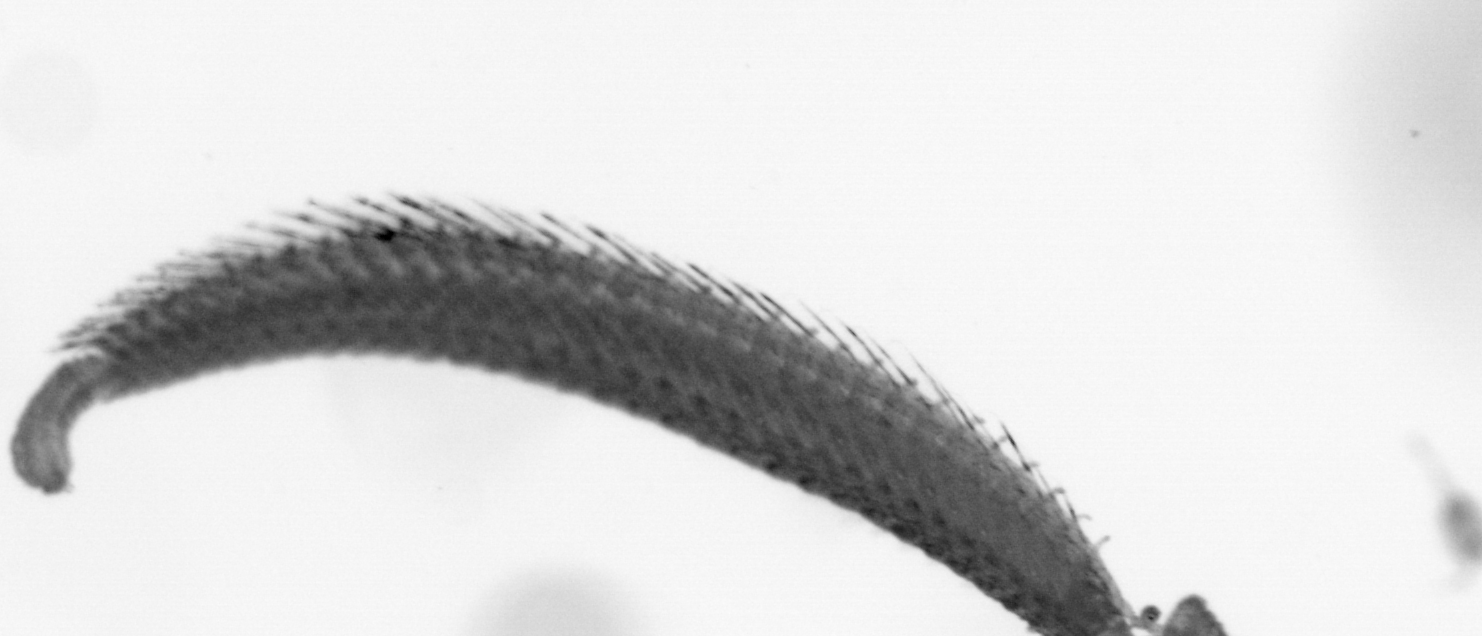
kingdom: Animalia
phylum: Annelida
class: Polychaeta
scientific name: Polychaeta
